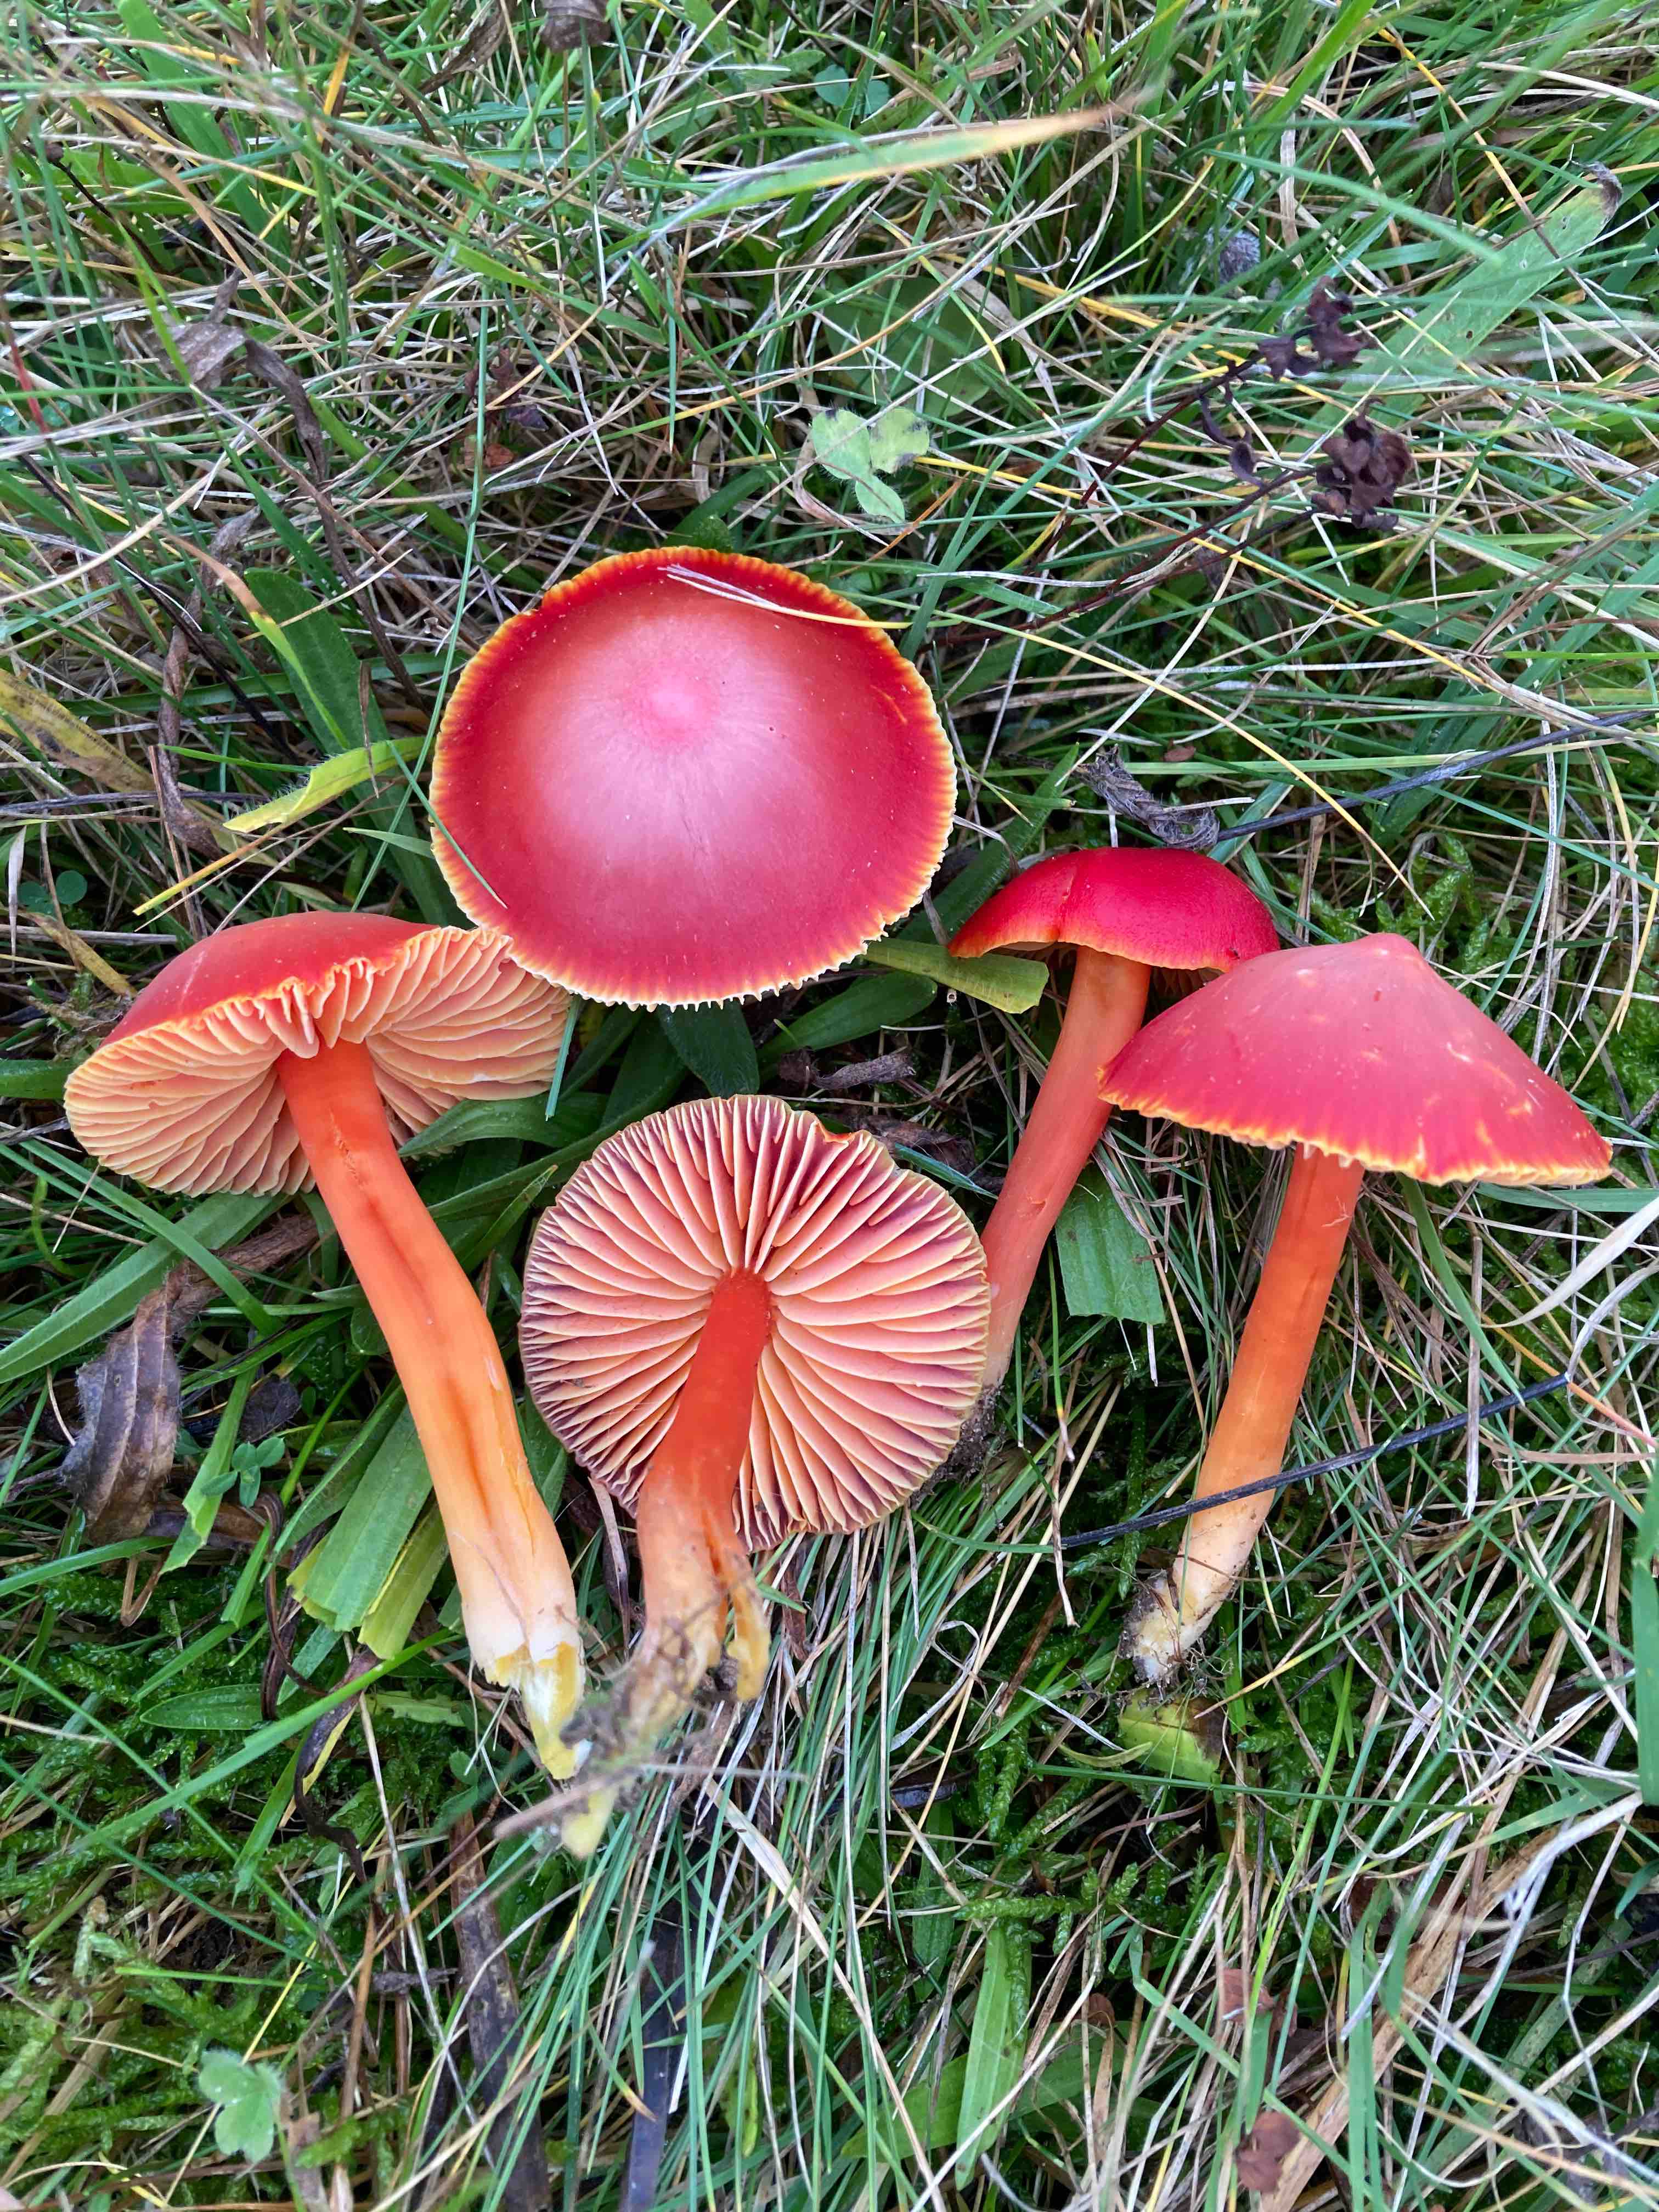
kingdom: Fungi
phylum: Basidiomycota
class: Agaricomycetes
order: Agaricales
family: Hygrophoraceae
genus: Hygrocybe
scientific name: Hygrocybe coccinea
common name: cinnober-vokshat
